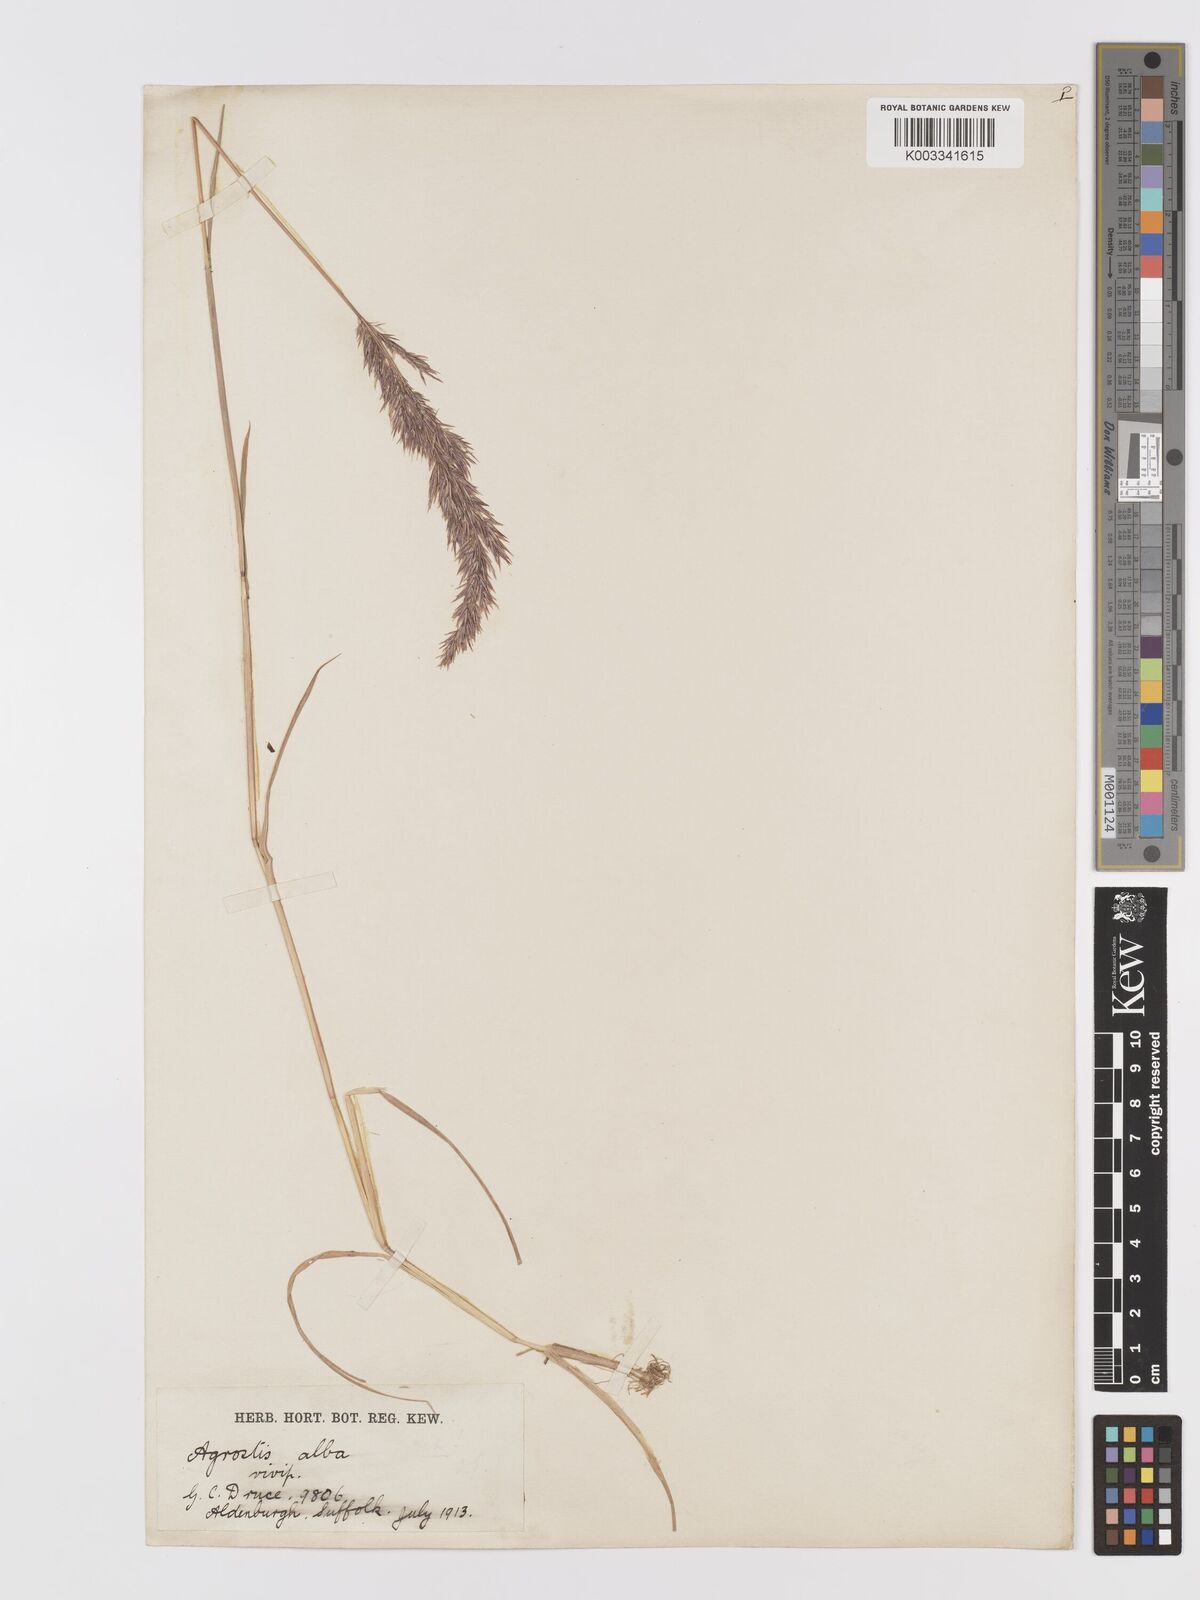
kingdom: Plantae
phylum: Tracheophyta
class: Liliopsida
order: Poales
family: Poaceae
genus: Agrostis
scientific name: Agrostis stolonifera
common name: Creeping bentgrass
